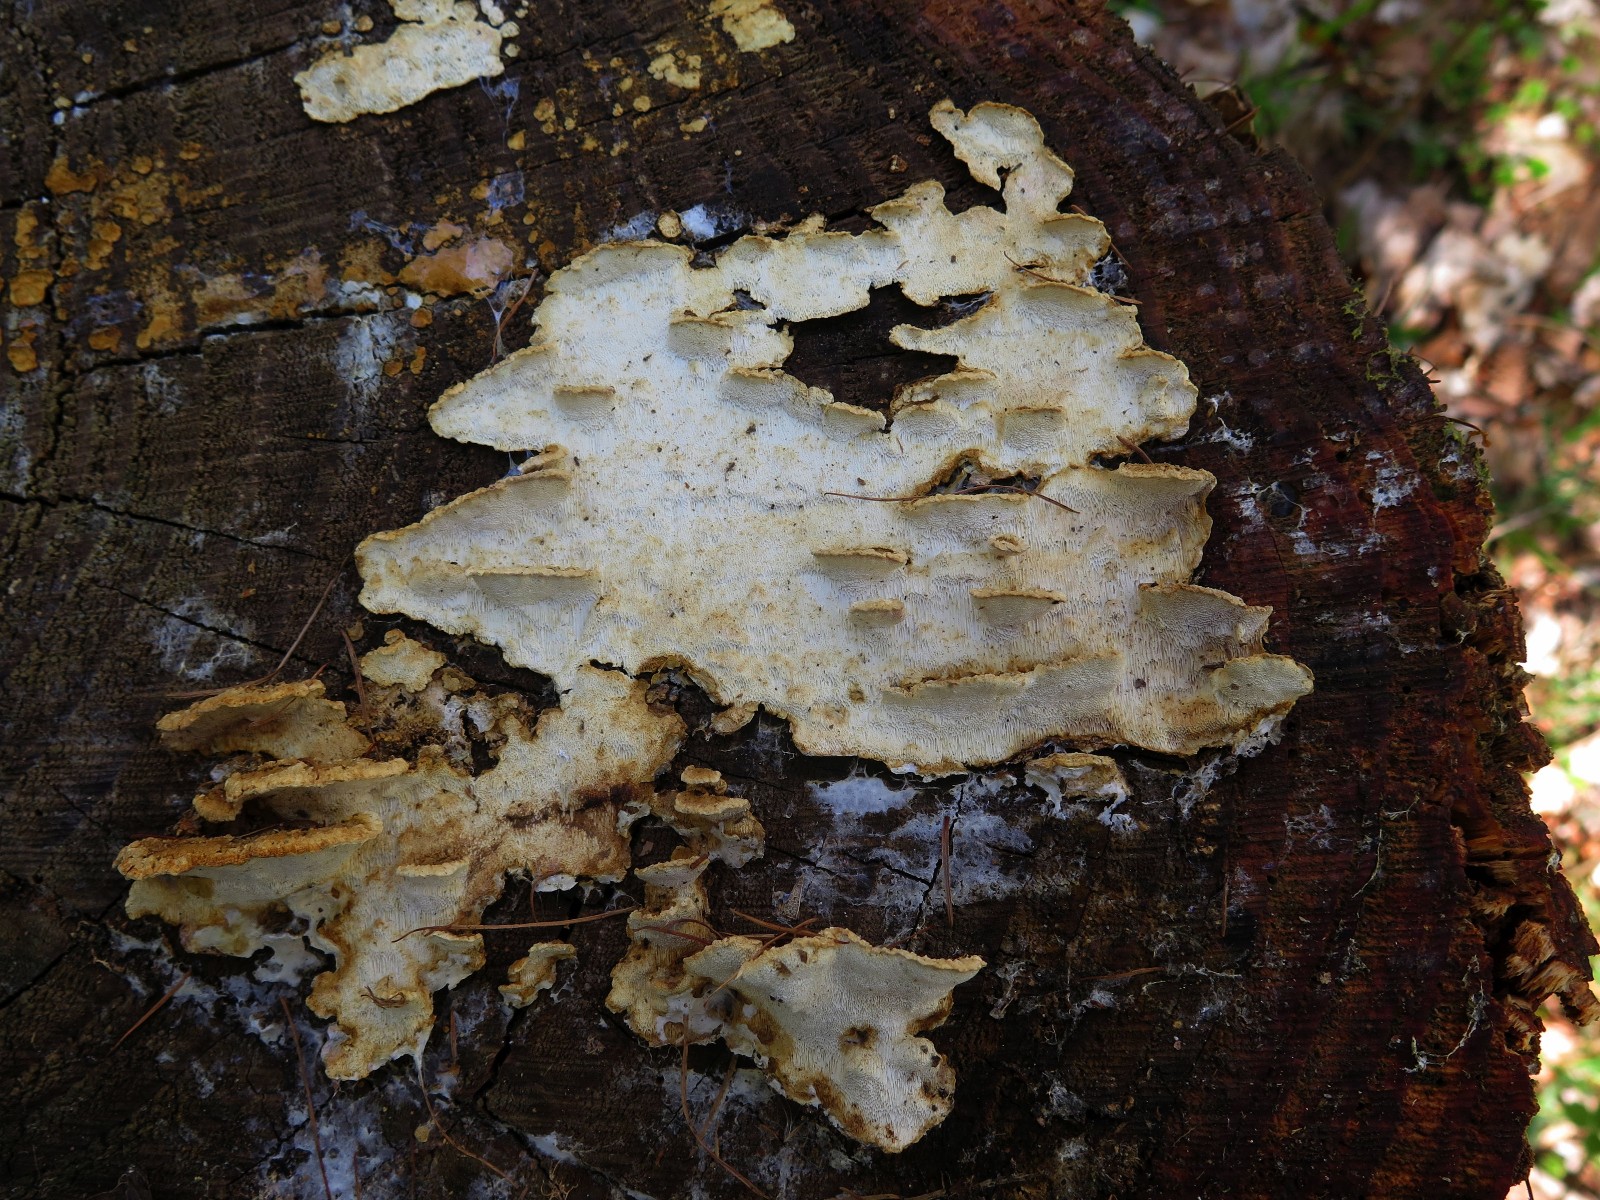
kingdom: Fungi
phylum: Basidiomycota
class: Agaricomycetes
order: Polyporales
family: Fomitopsidaceae
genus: Neoantrodia
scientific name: Neoantrodia serialis
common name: række-sejporesvamp
